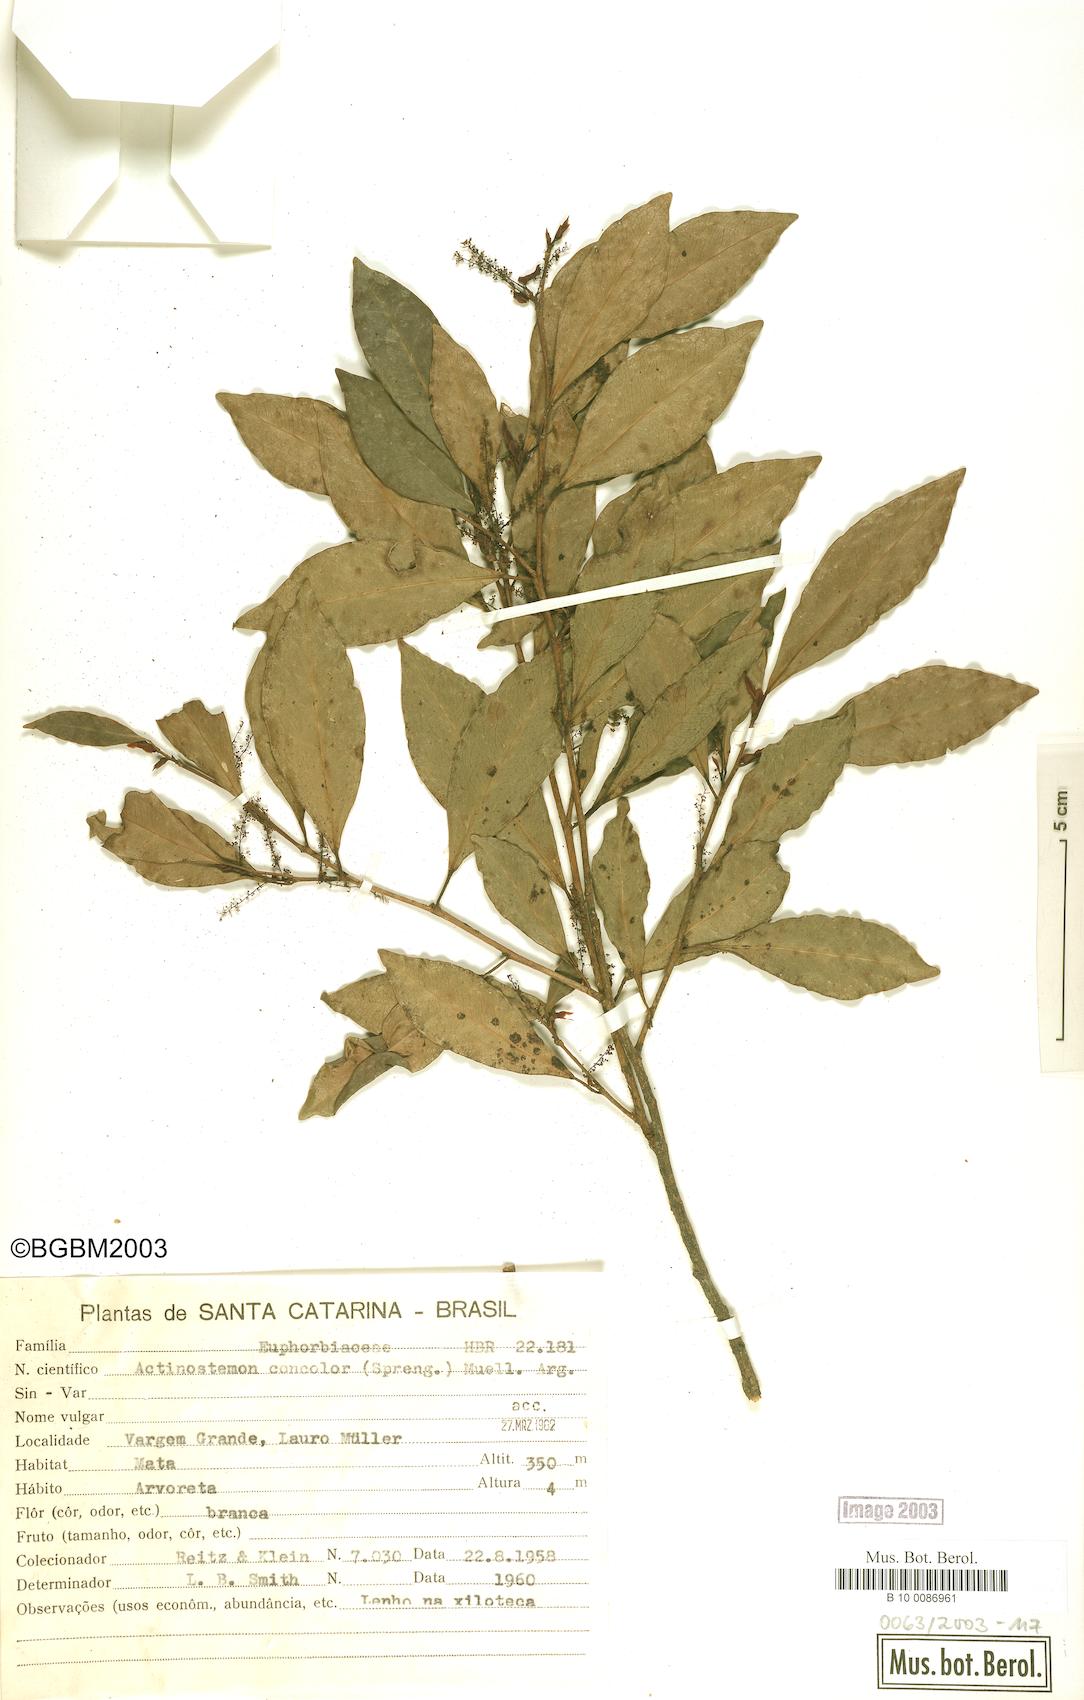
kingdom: Plantae
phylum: Tracheophyta
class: Magnoliopsida
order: Malpighiales
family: Euphorbiaceae
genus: Actinostemon
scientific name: Actinostemon concolor
